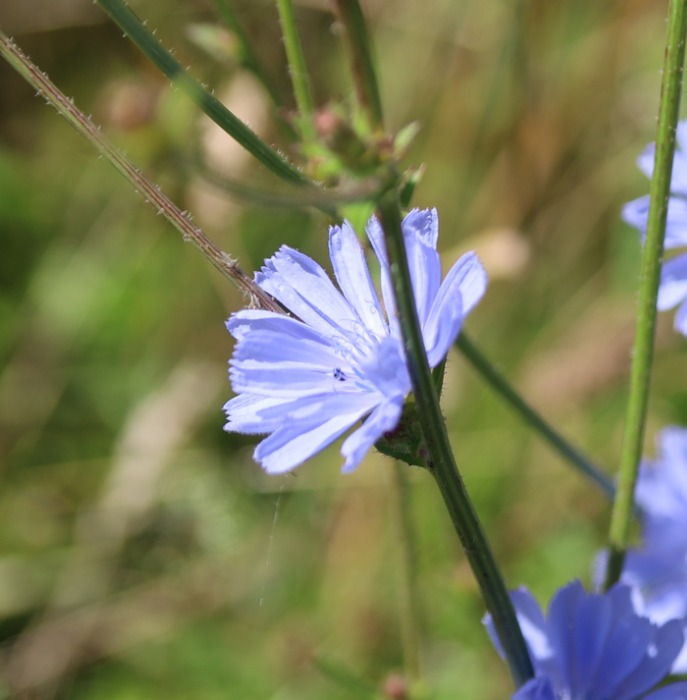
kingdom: Plantae
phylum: Tracheophyta
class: Magnoliopsida
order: Asterales
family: Asteraceae
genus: Cichorium
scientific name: Cichorium intybus
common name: Cikorie
